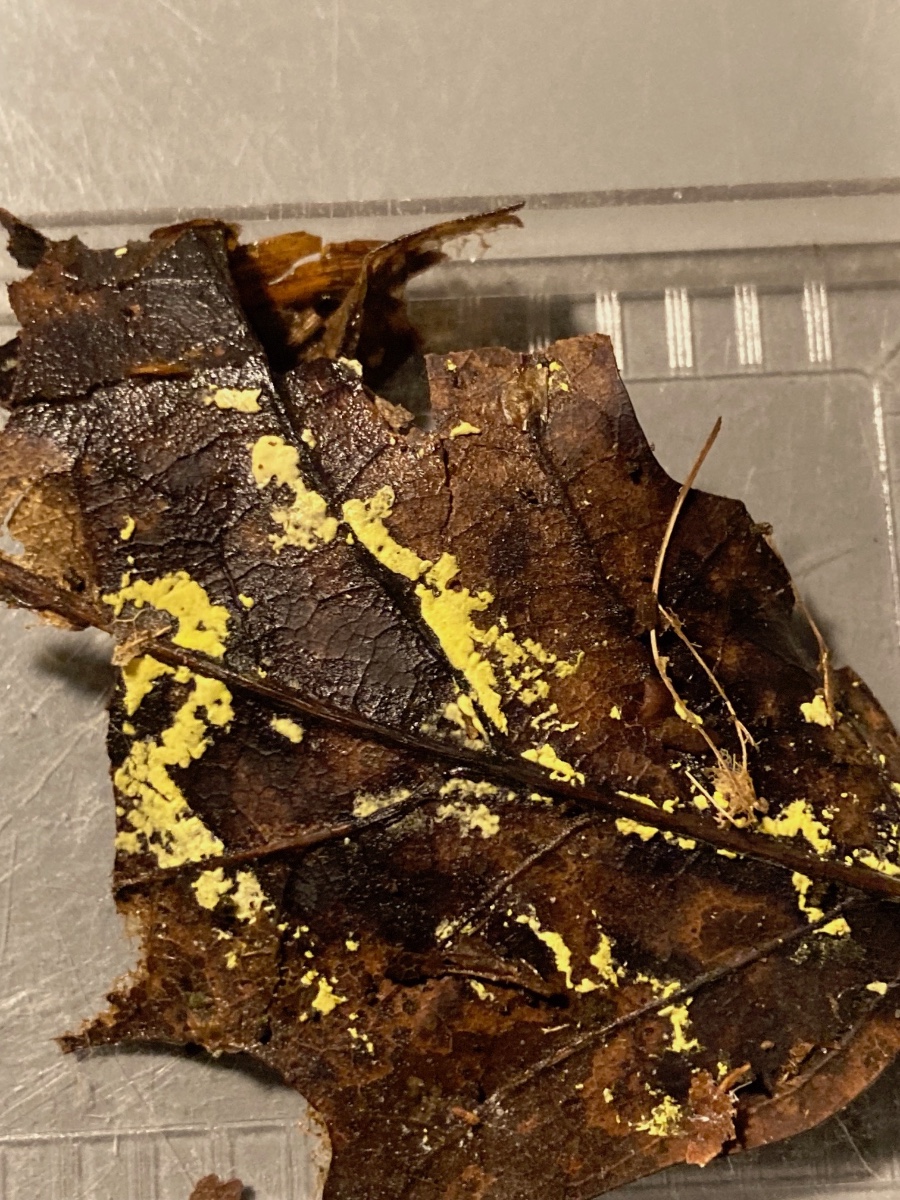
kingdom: Fungi
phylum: Ascomycota
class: Sordariomycetes
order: Hypocreales
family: Cylindriaceae
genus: Cylindrium
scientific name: Cylindrium aeruginosum
